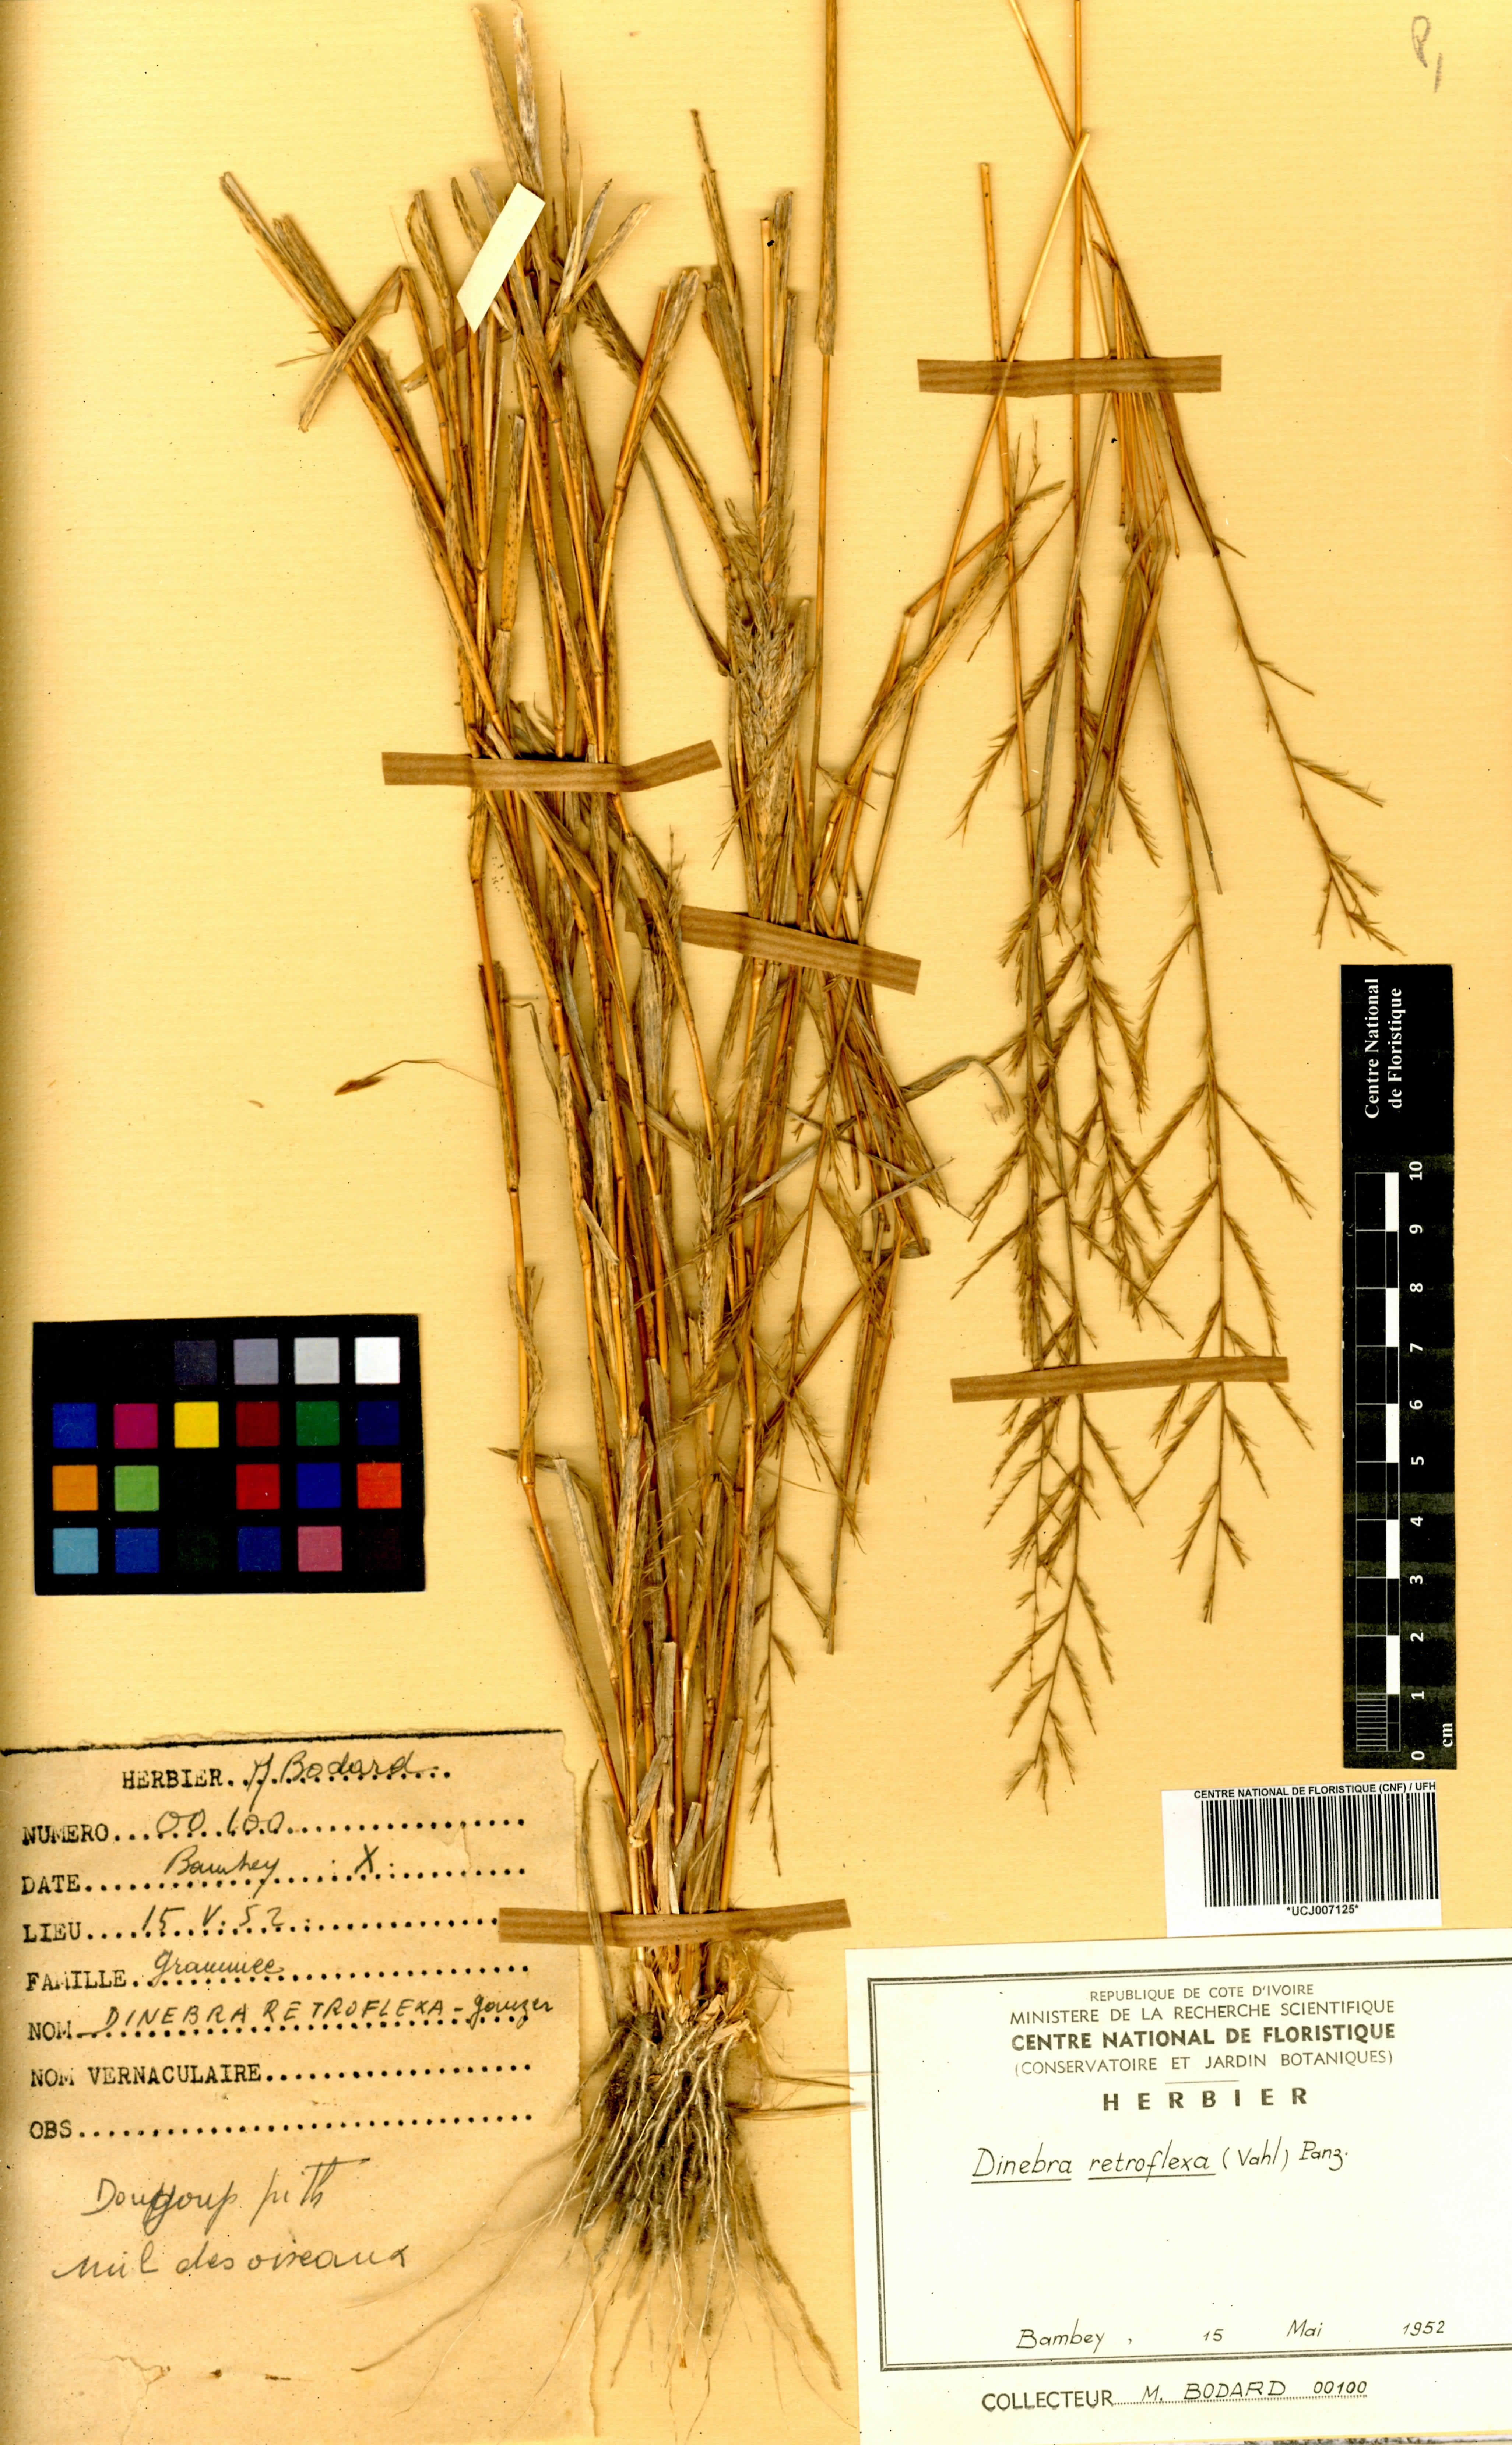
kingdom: Plantae
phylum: Tracheophyta
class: Liliopsida
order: Poales
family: Poaceae
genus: Dinebra
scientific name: Dinebra retroflexa
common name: Viper grass
